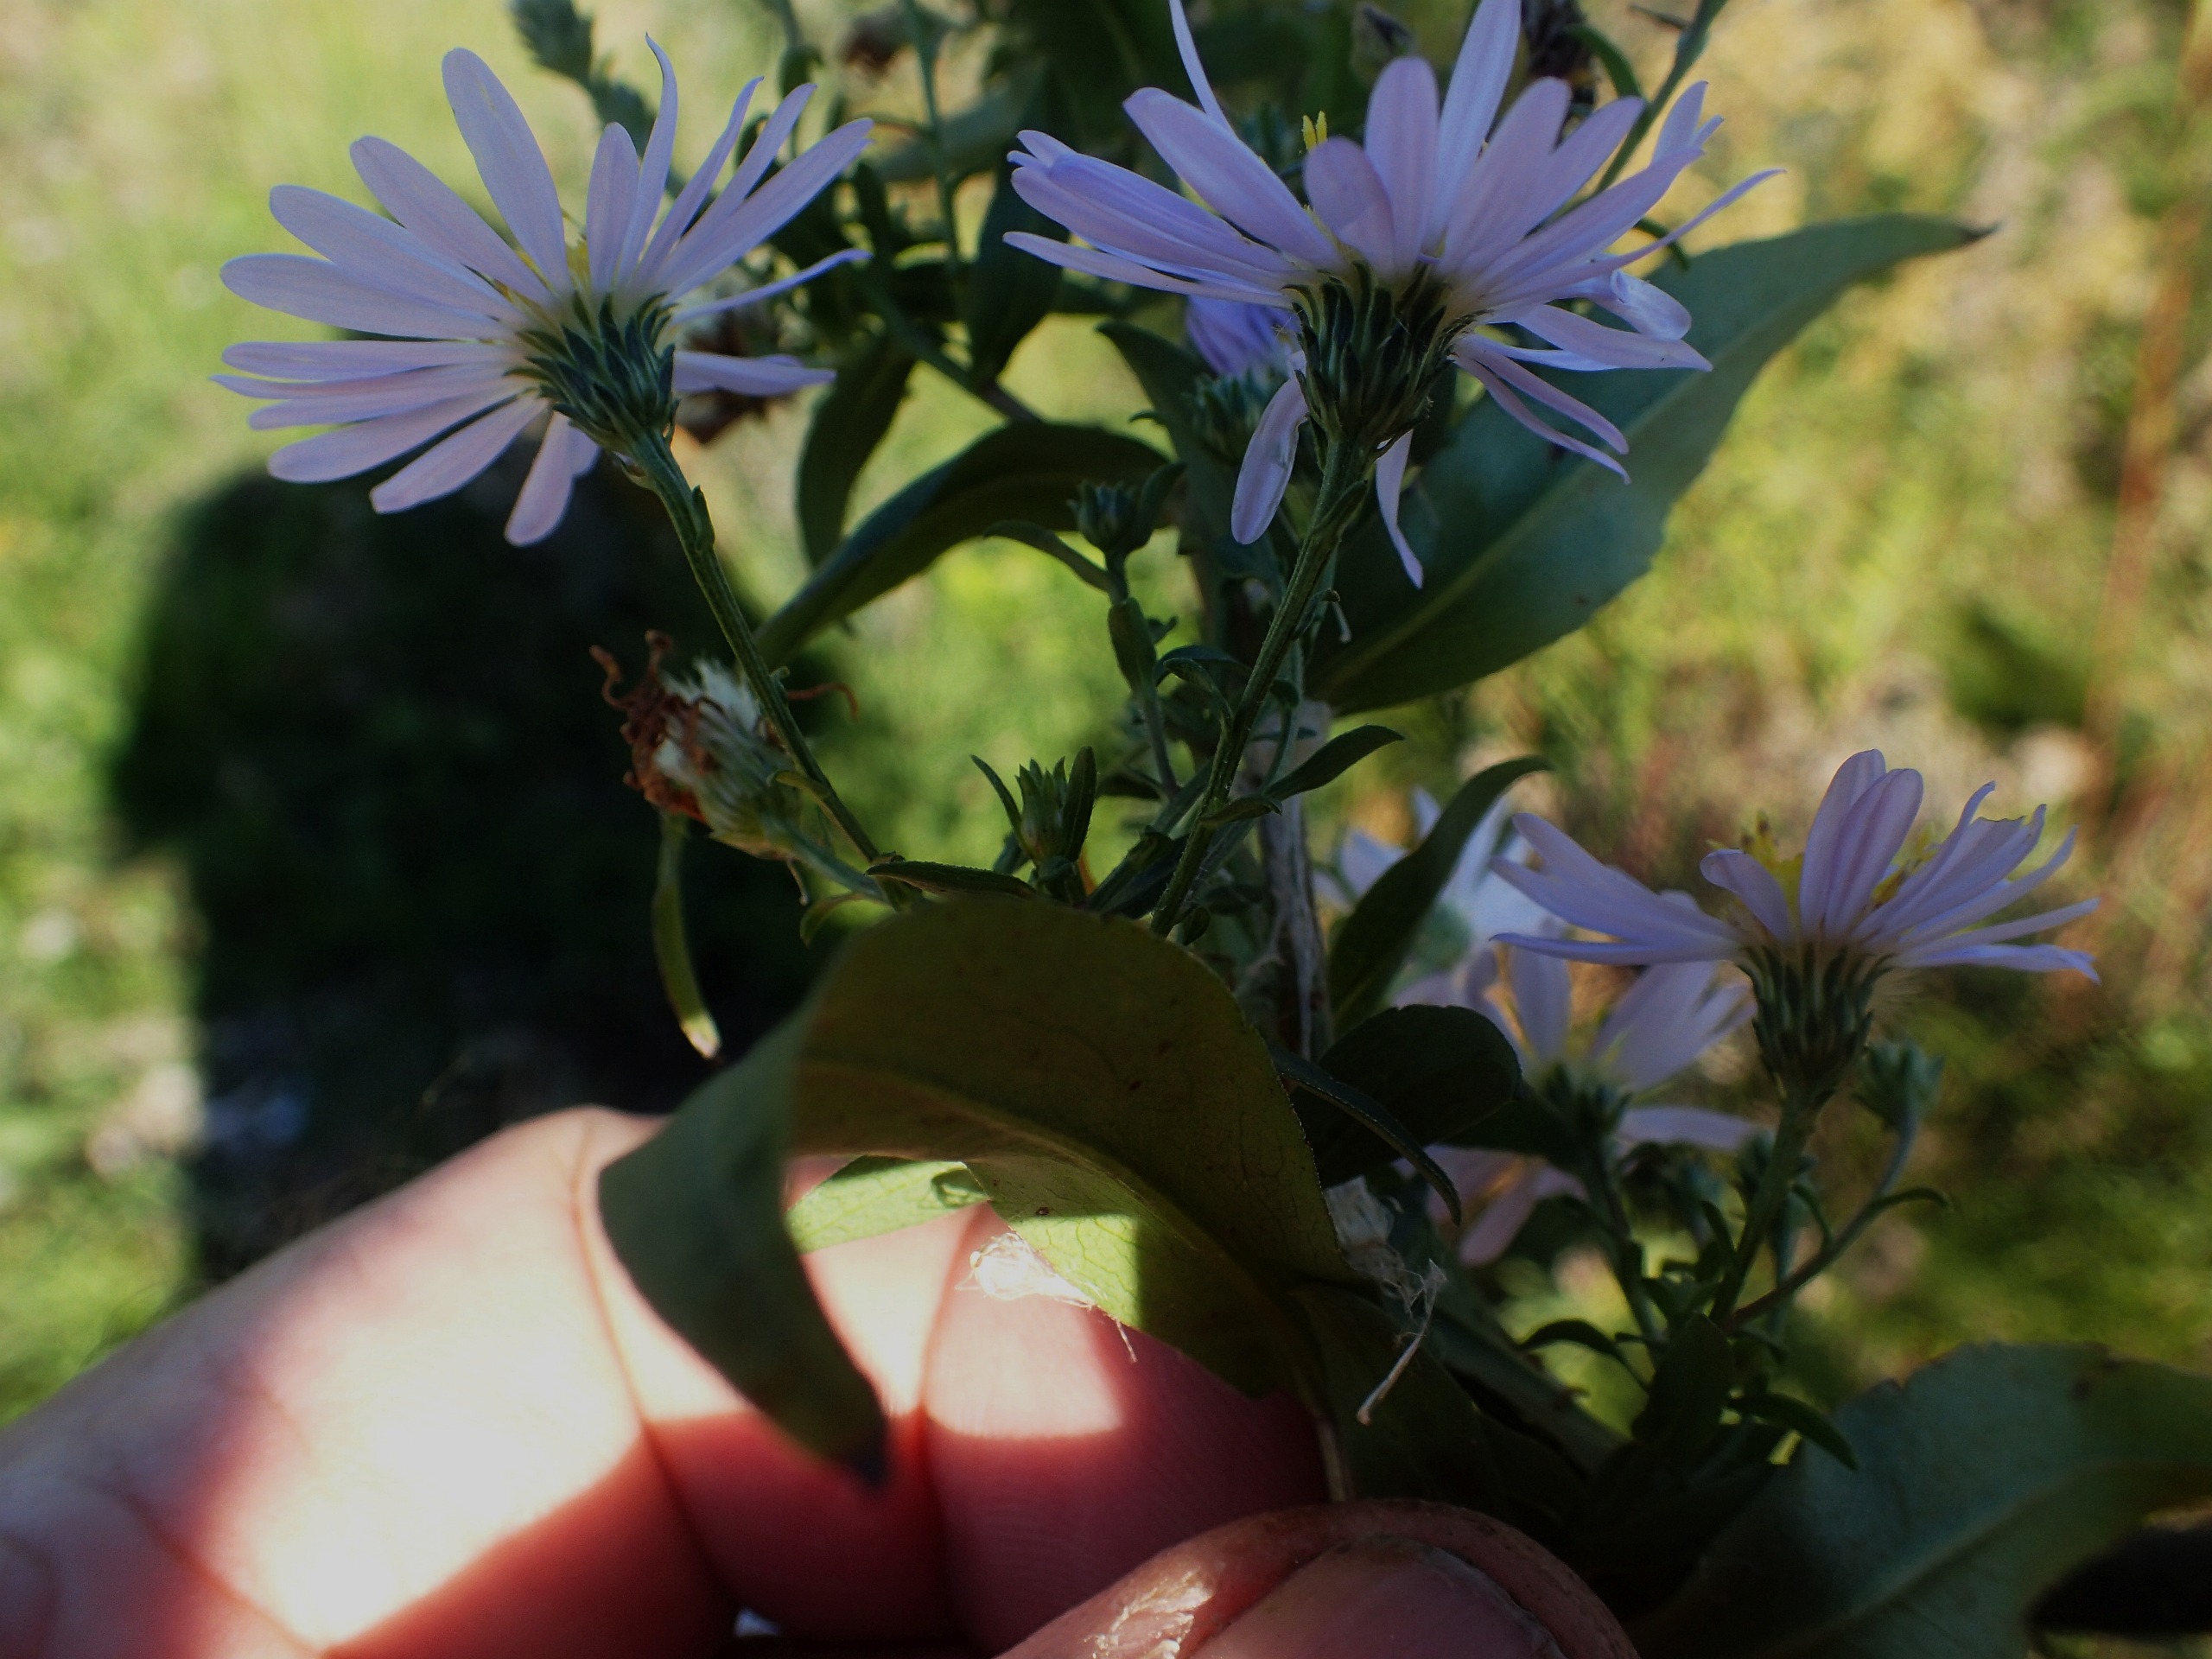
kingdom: Plantae
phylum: Tracheophyta
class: Magnoliopsida
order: Asterales
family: Asteraceae
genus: Symphyotrichum
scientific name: Symphyotrichum versicolor
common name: Broget asters
